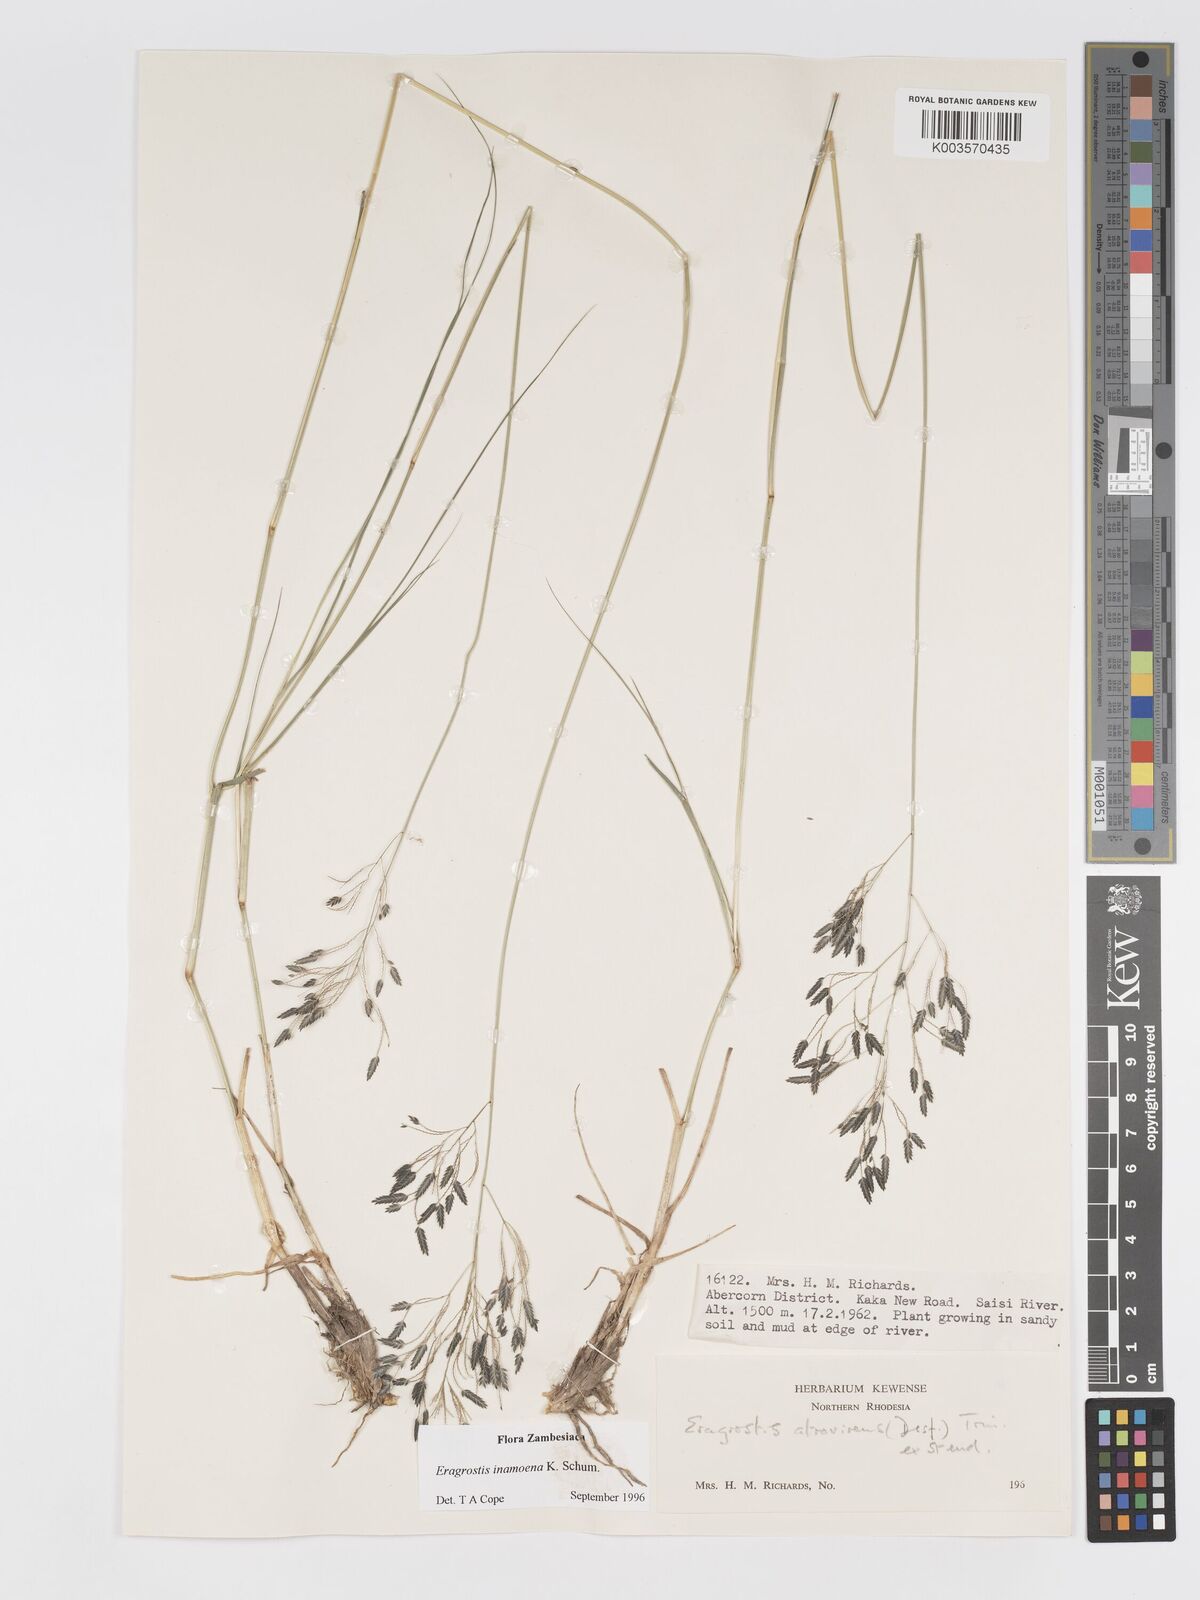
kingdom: Plantae
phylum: Tracheophyta
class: Liliopsida
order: Poales
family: Poaceae
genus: Eragrostis
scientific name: Eragrostis inamoena
